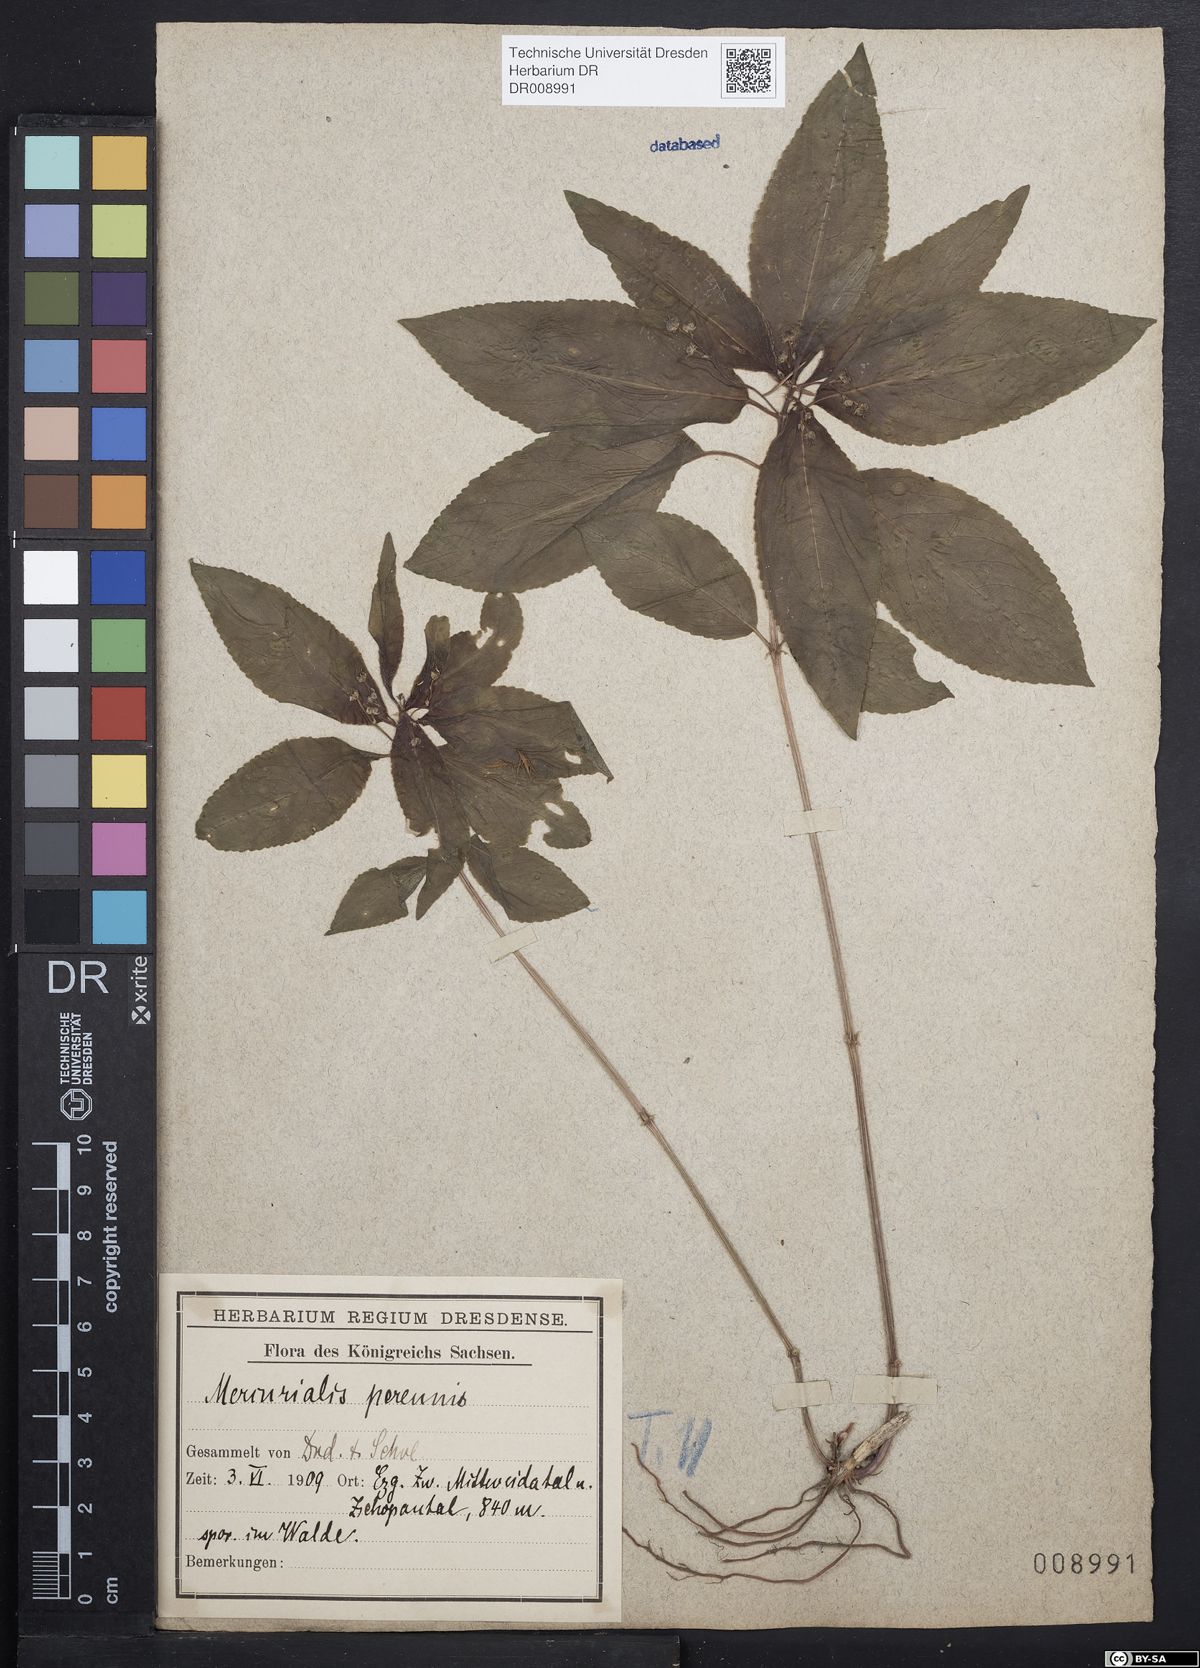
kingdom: Plantae
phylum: Tracheophyta
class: Magnoliopsida
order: Malpighiales
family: Euphorbiaceae
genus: Mercurialis
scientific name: Mercurialis perennis
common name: Dog mercury
